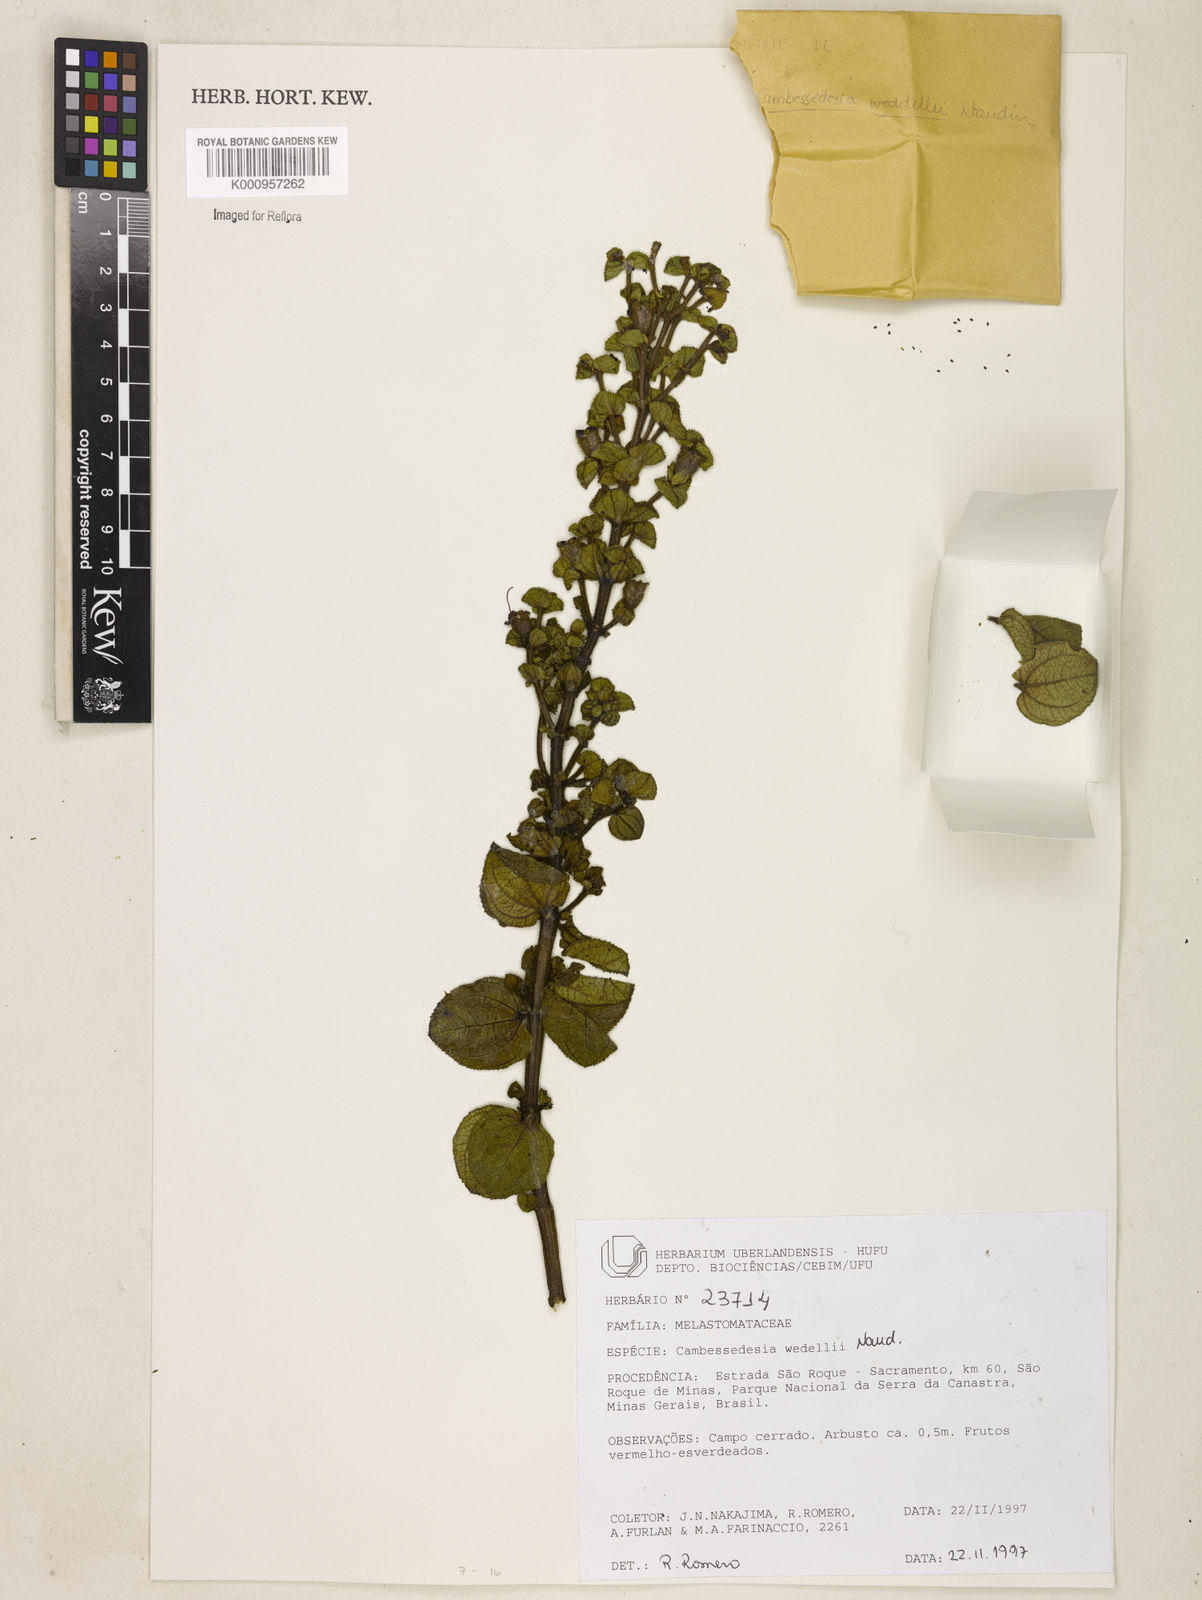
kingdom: Plantae
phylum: Tracheophyta
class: Magnoliopsida
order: Myrtales
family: Melastomataceae
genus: Cambessedesia
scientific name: Cambessedesia weddellii
